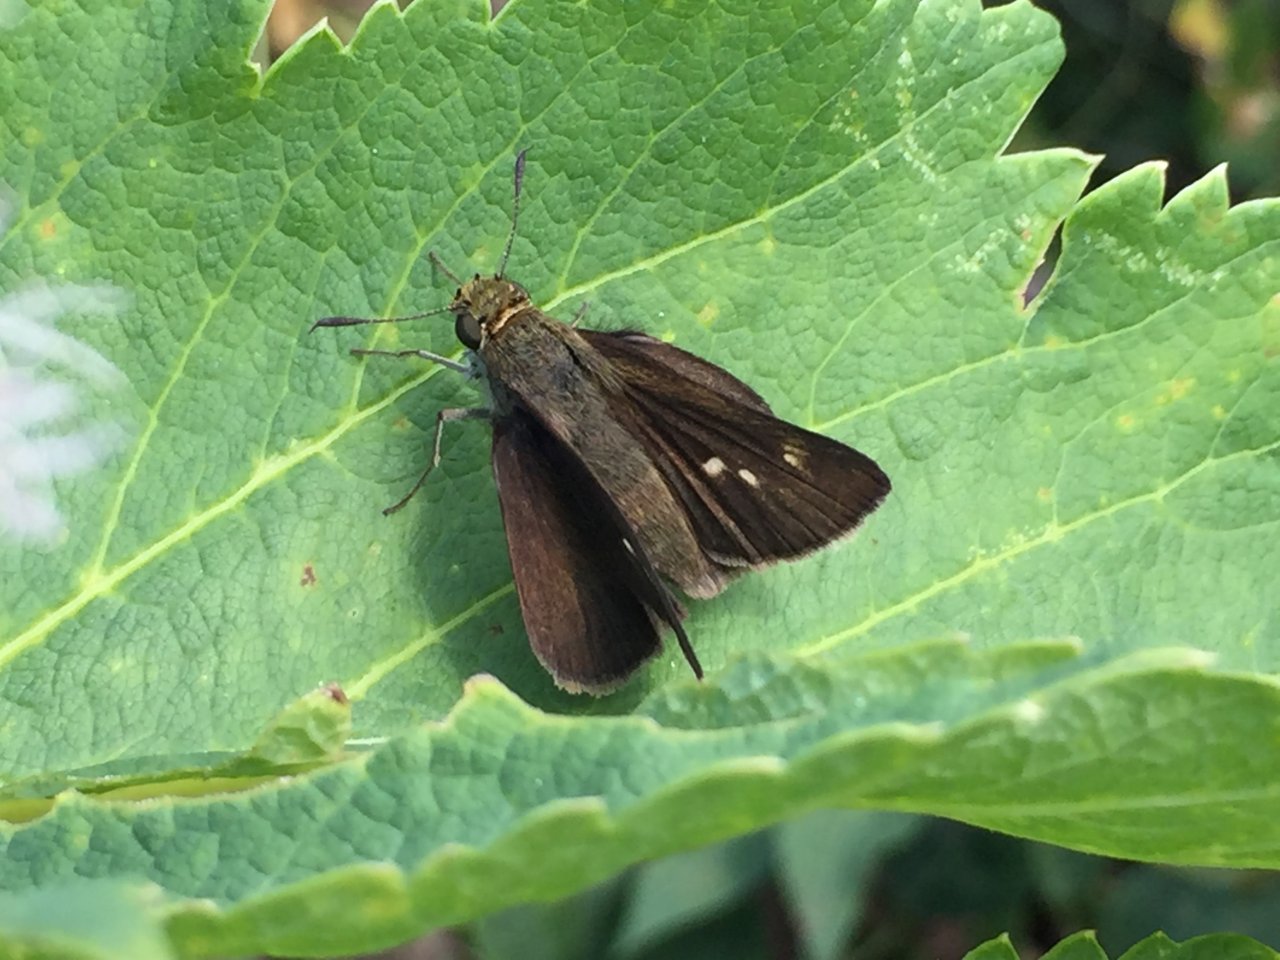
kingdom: Animalia
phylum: Arthropoda
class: Insecta
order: Lepidoptera
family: Hesperiidae
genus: Euphyes
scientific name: Euphyes vestris
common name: Dun Skipper
